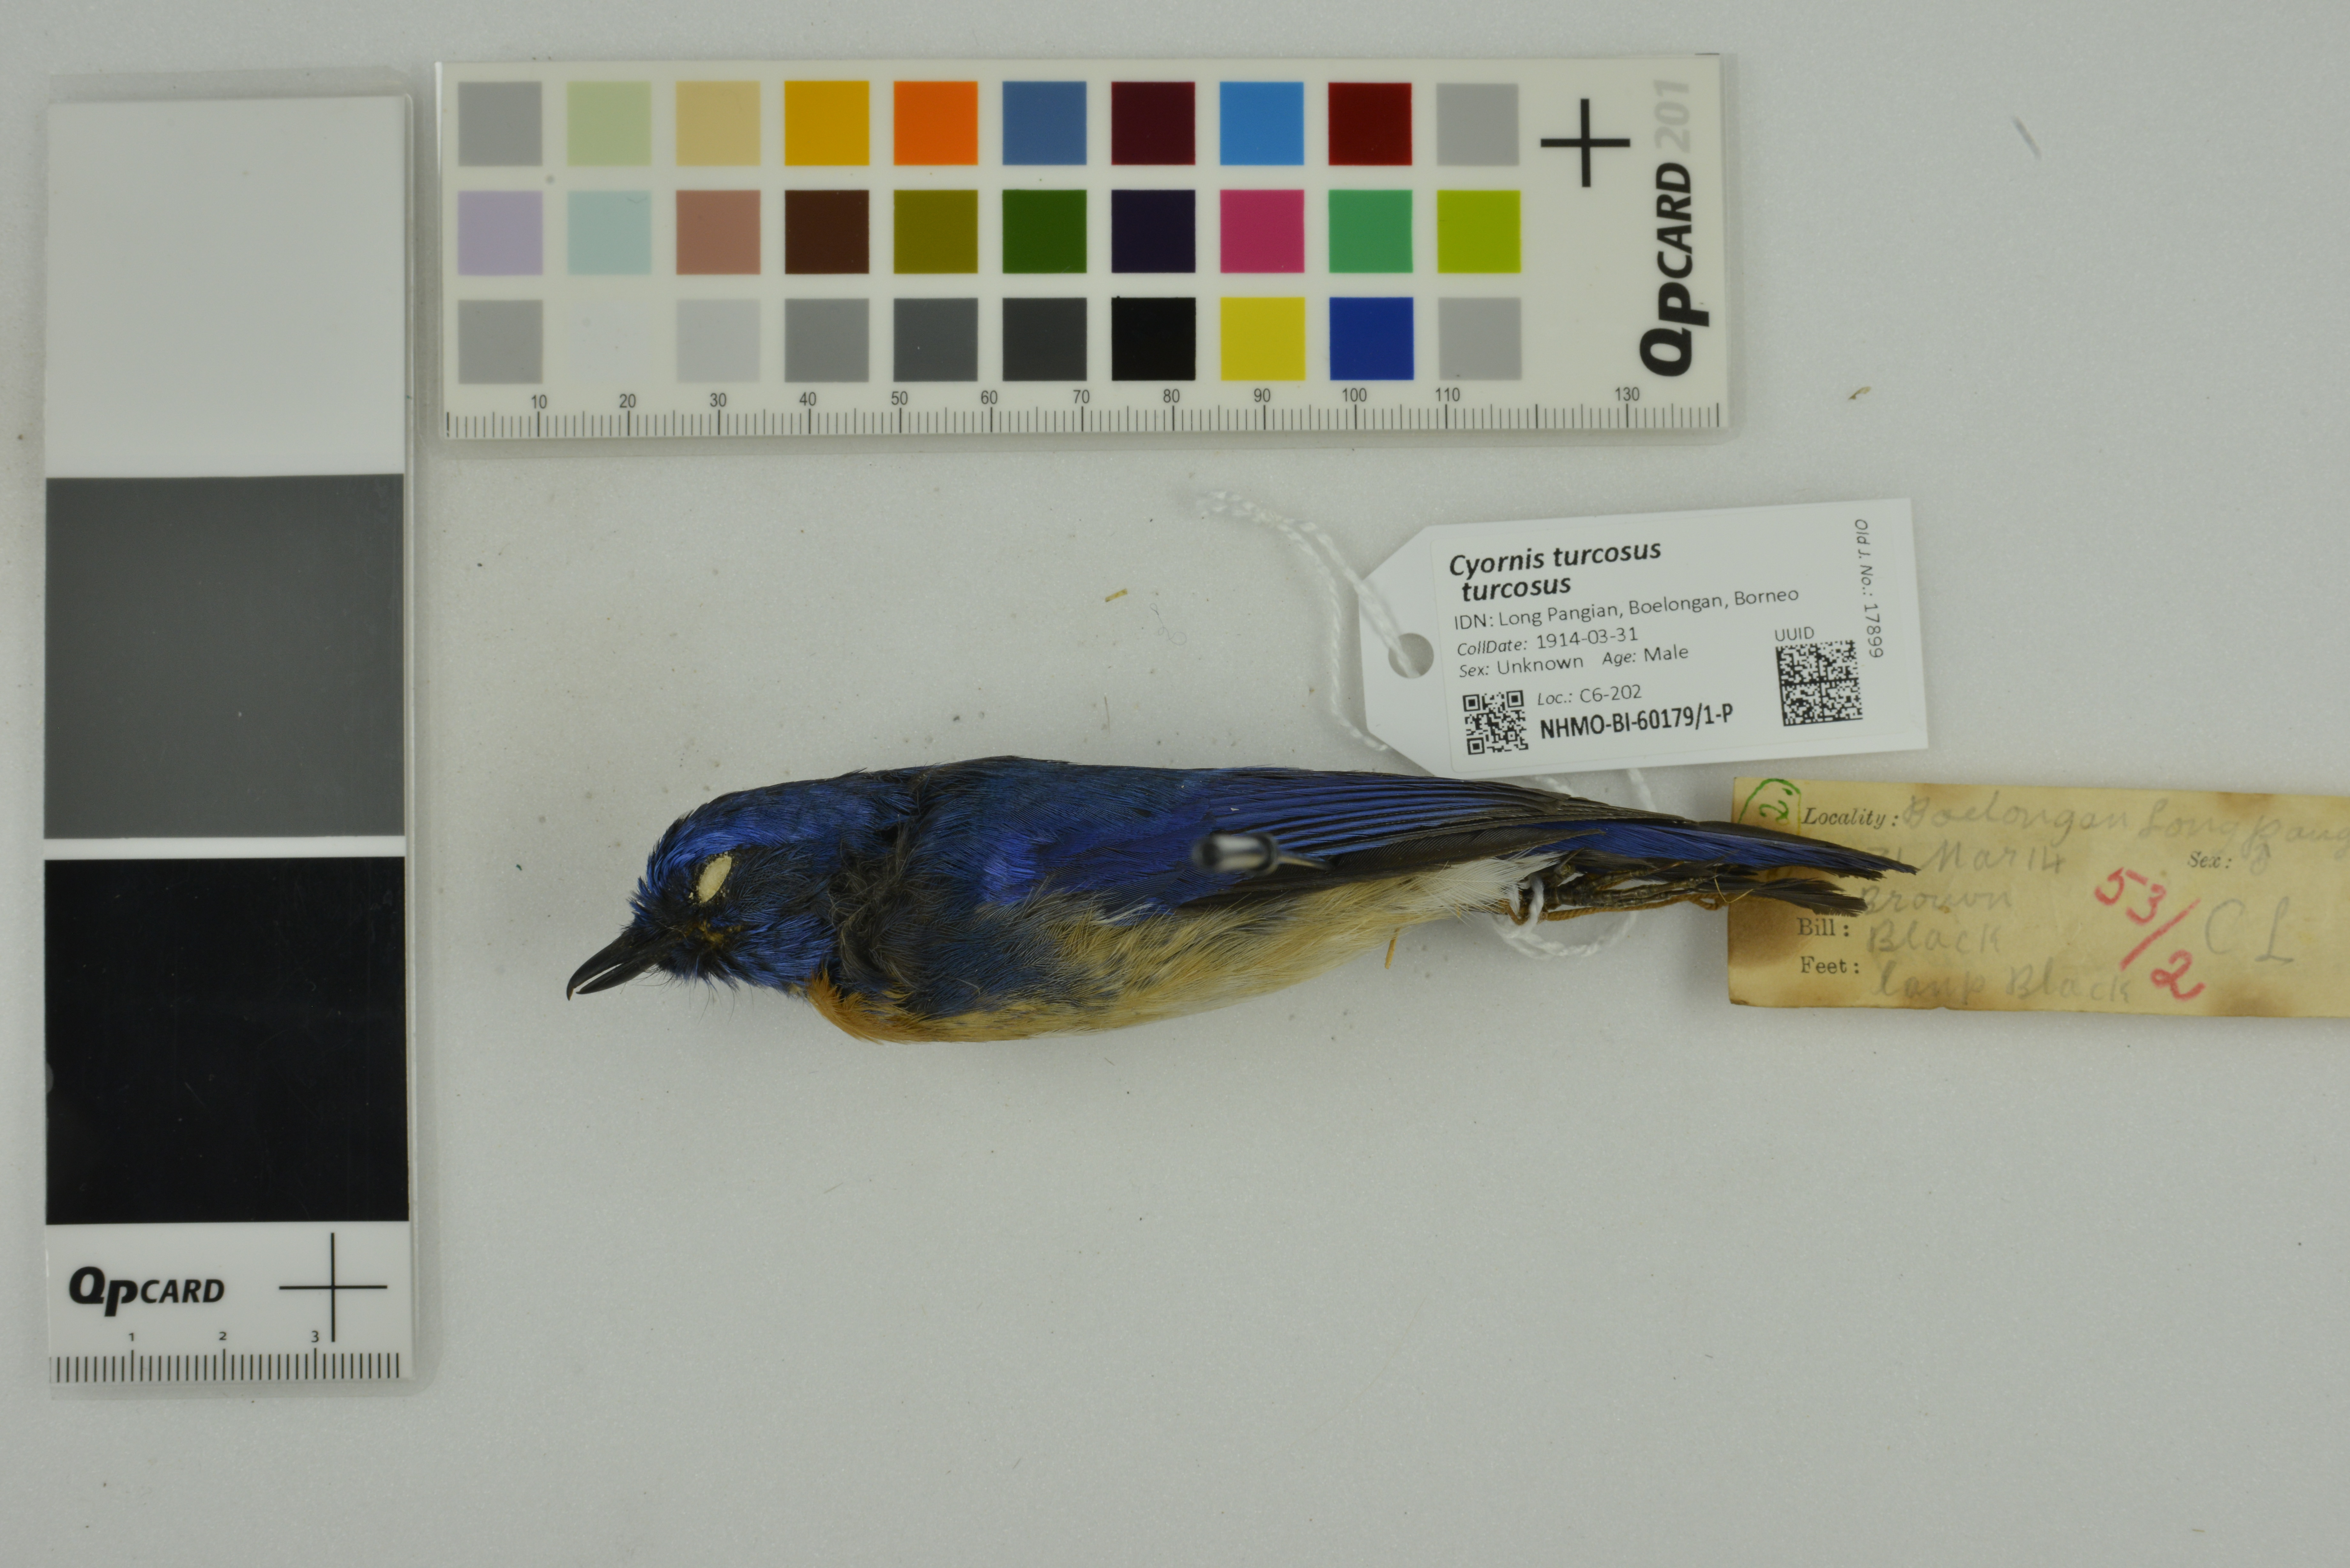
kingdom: Animalia
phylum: Chordata
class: Aves
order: Passeriformes
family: Muscicapidae
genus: Cyornis
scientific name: Cyornis turcosus
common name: Malaysian blue flycatcher
